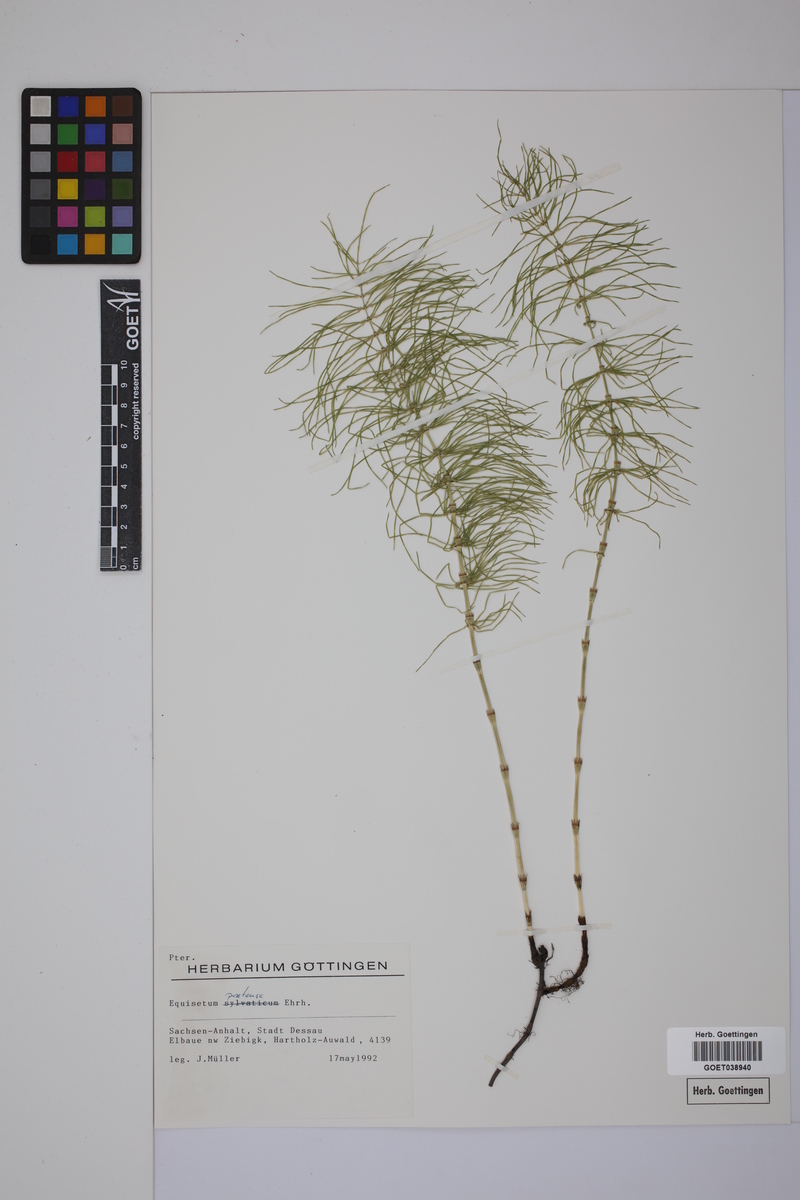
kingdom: Plantae
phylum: Tracheophyta
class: Polypodiopsida
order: Equisetales
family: Equisetaceae
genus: Equisetum
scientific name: Equisetum pratense
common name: Meadow horsetail
